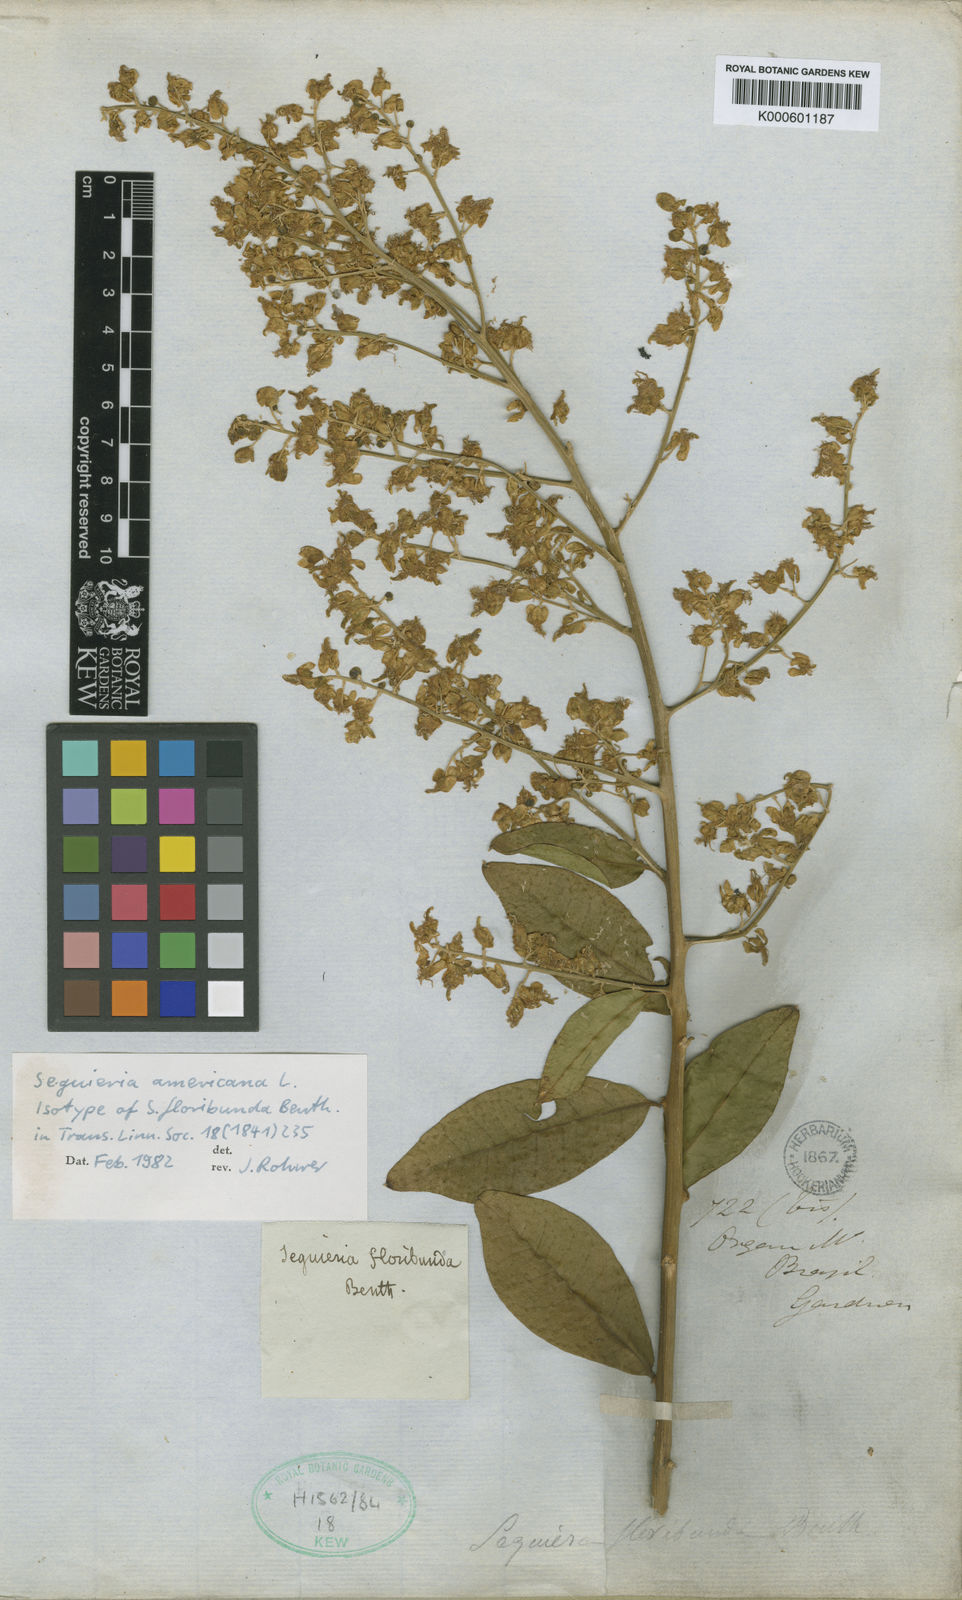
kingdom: Plantae
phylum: Tracheophyta
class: Magnoliopsida
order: Caryophyllales
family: Phytolaccaceae
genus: Seguieria
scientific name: Seguieria americana
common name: American seguieria
